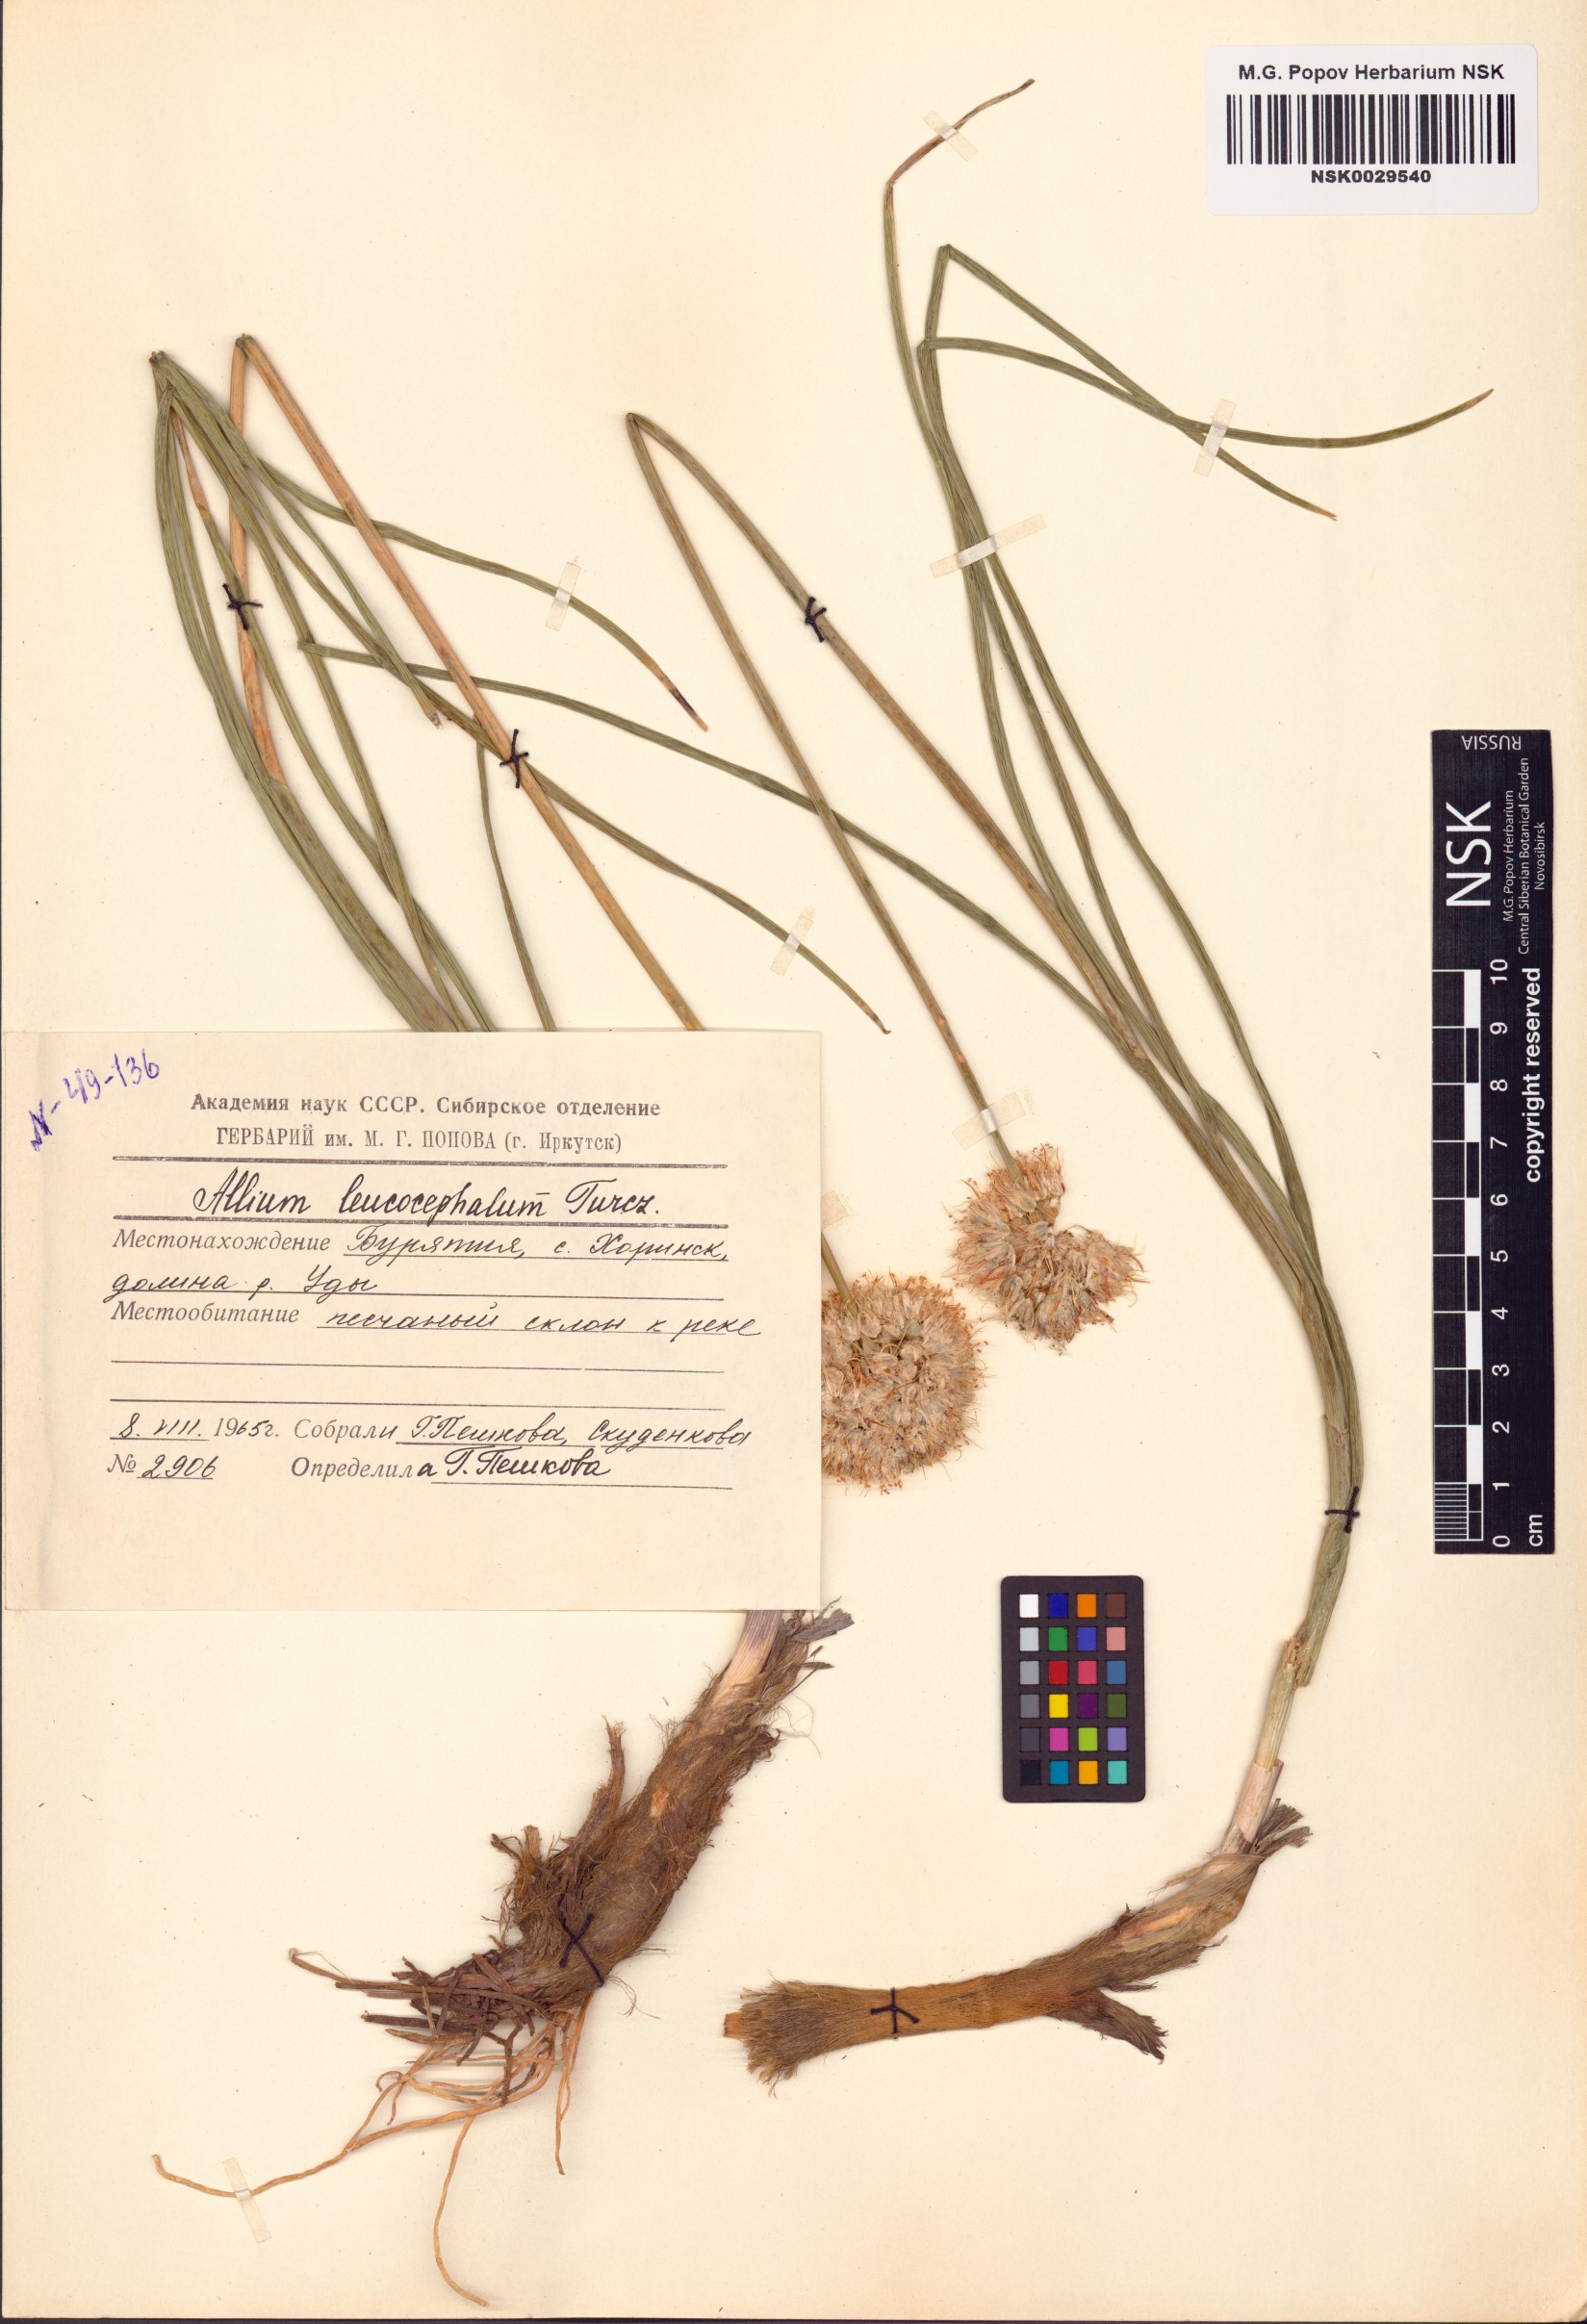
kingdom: Plantae
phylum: Tracheophyta
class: Liliopsida
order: Asparagales
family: Amaryllidaceae
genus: Allium
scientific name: Allium leucocephalum
